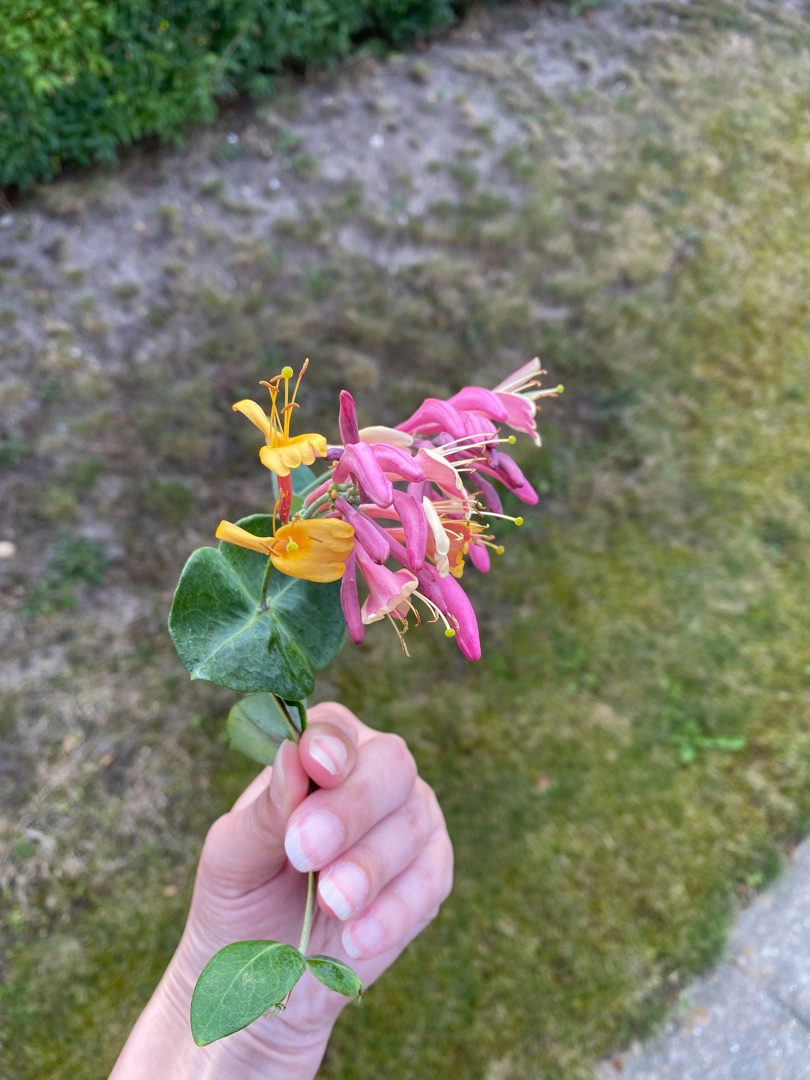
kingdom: Plantae
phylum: Tracheophyta
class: Magnoliopsida
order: Dipsacales
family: Caprifoliaceae
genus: Lonicera
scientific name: Lonicera caprifolium
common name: Ægte kaprifolie
